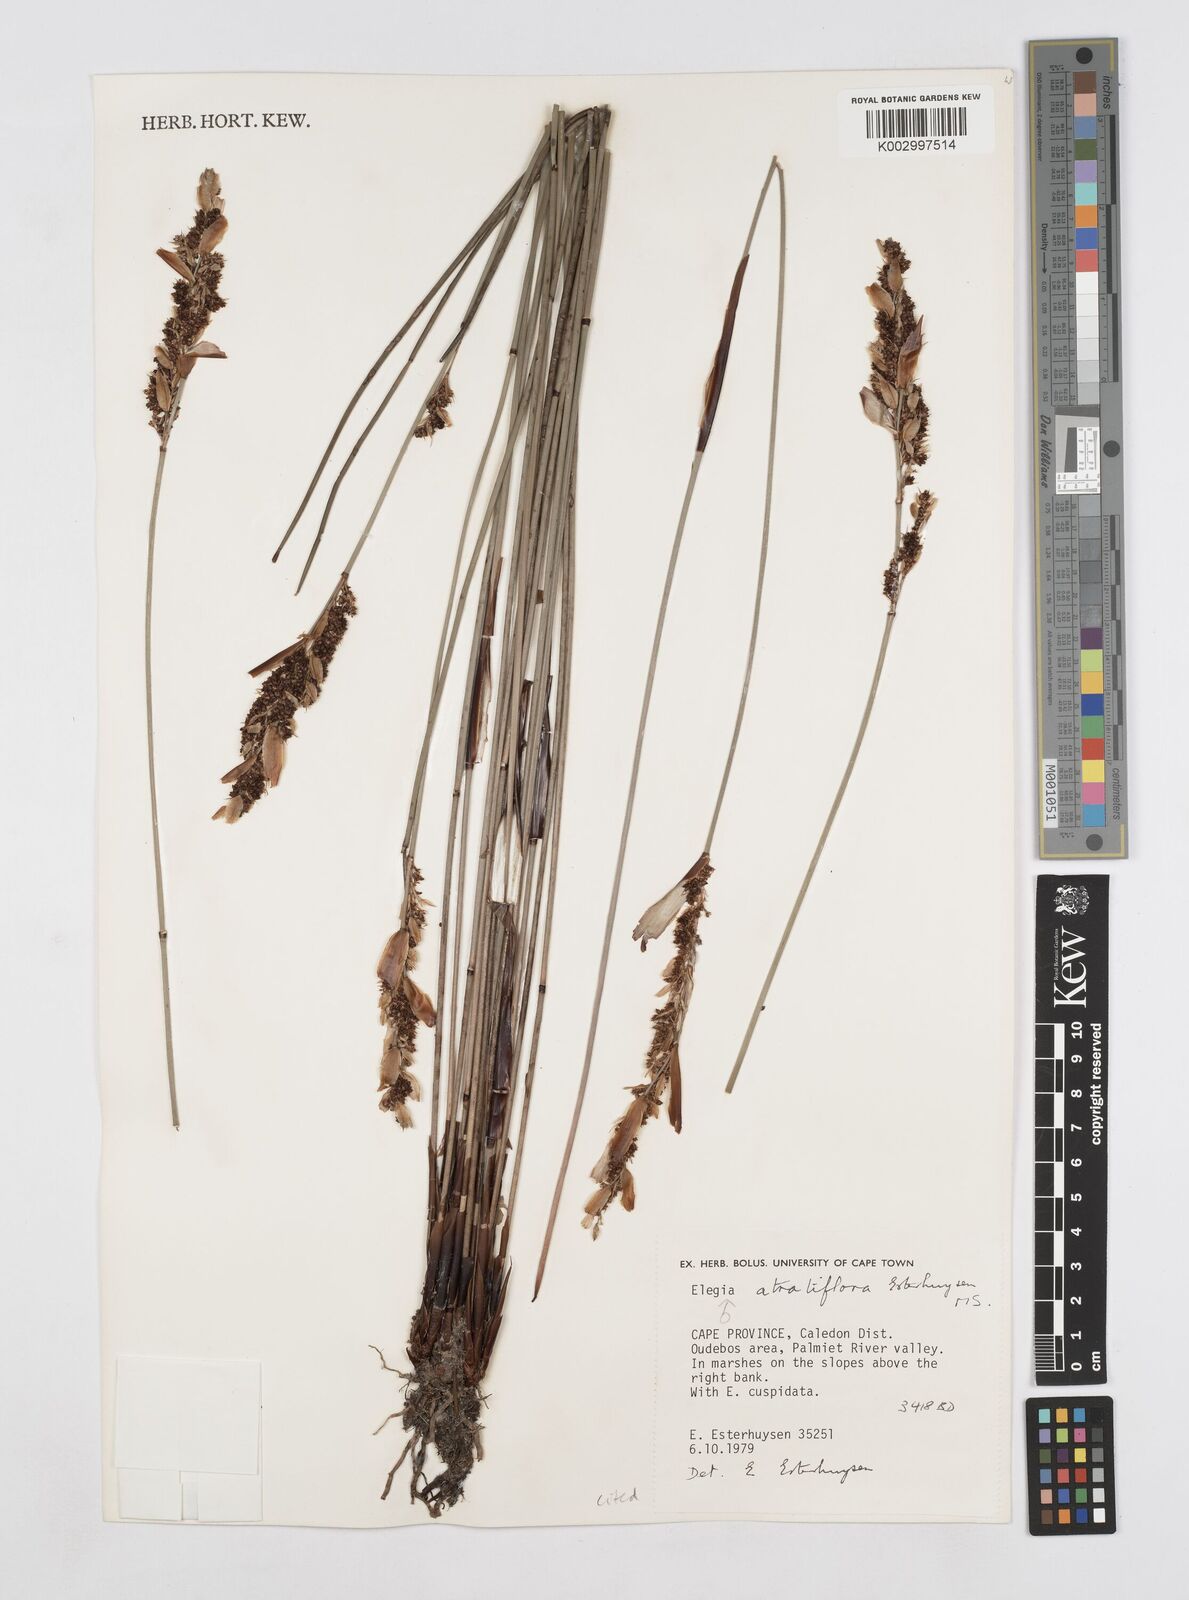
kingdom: Plantae
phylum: Tracheophyta
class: Liliopsida
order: Poales
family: Restionaceae
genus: Elegia
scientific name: Elegia atratiflora
